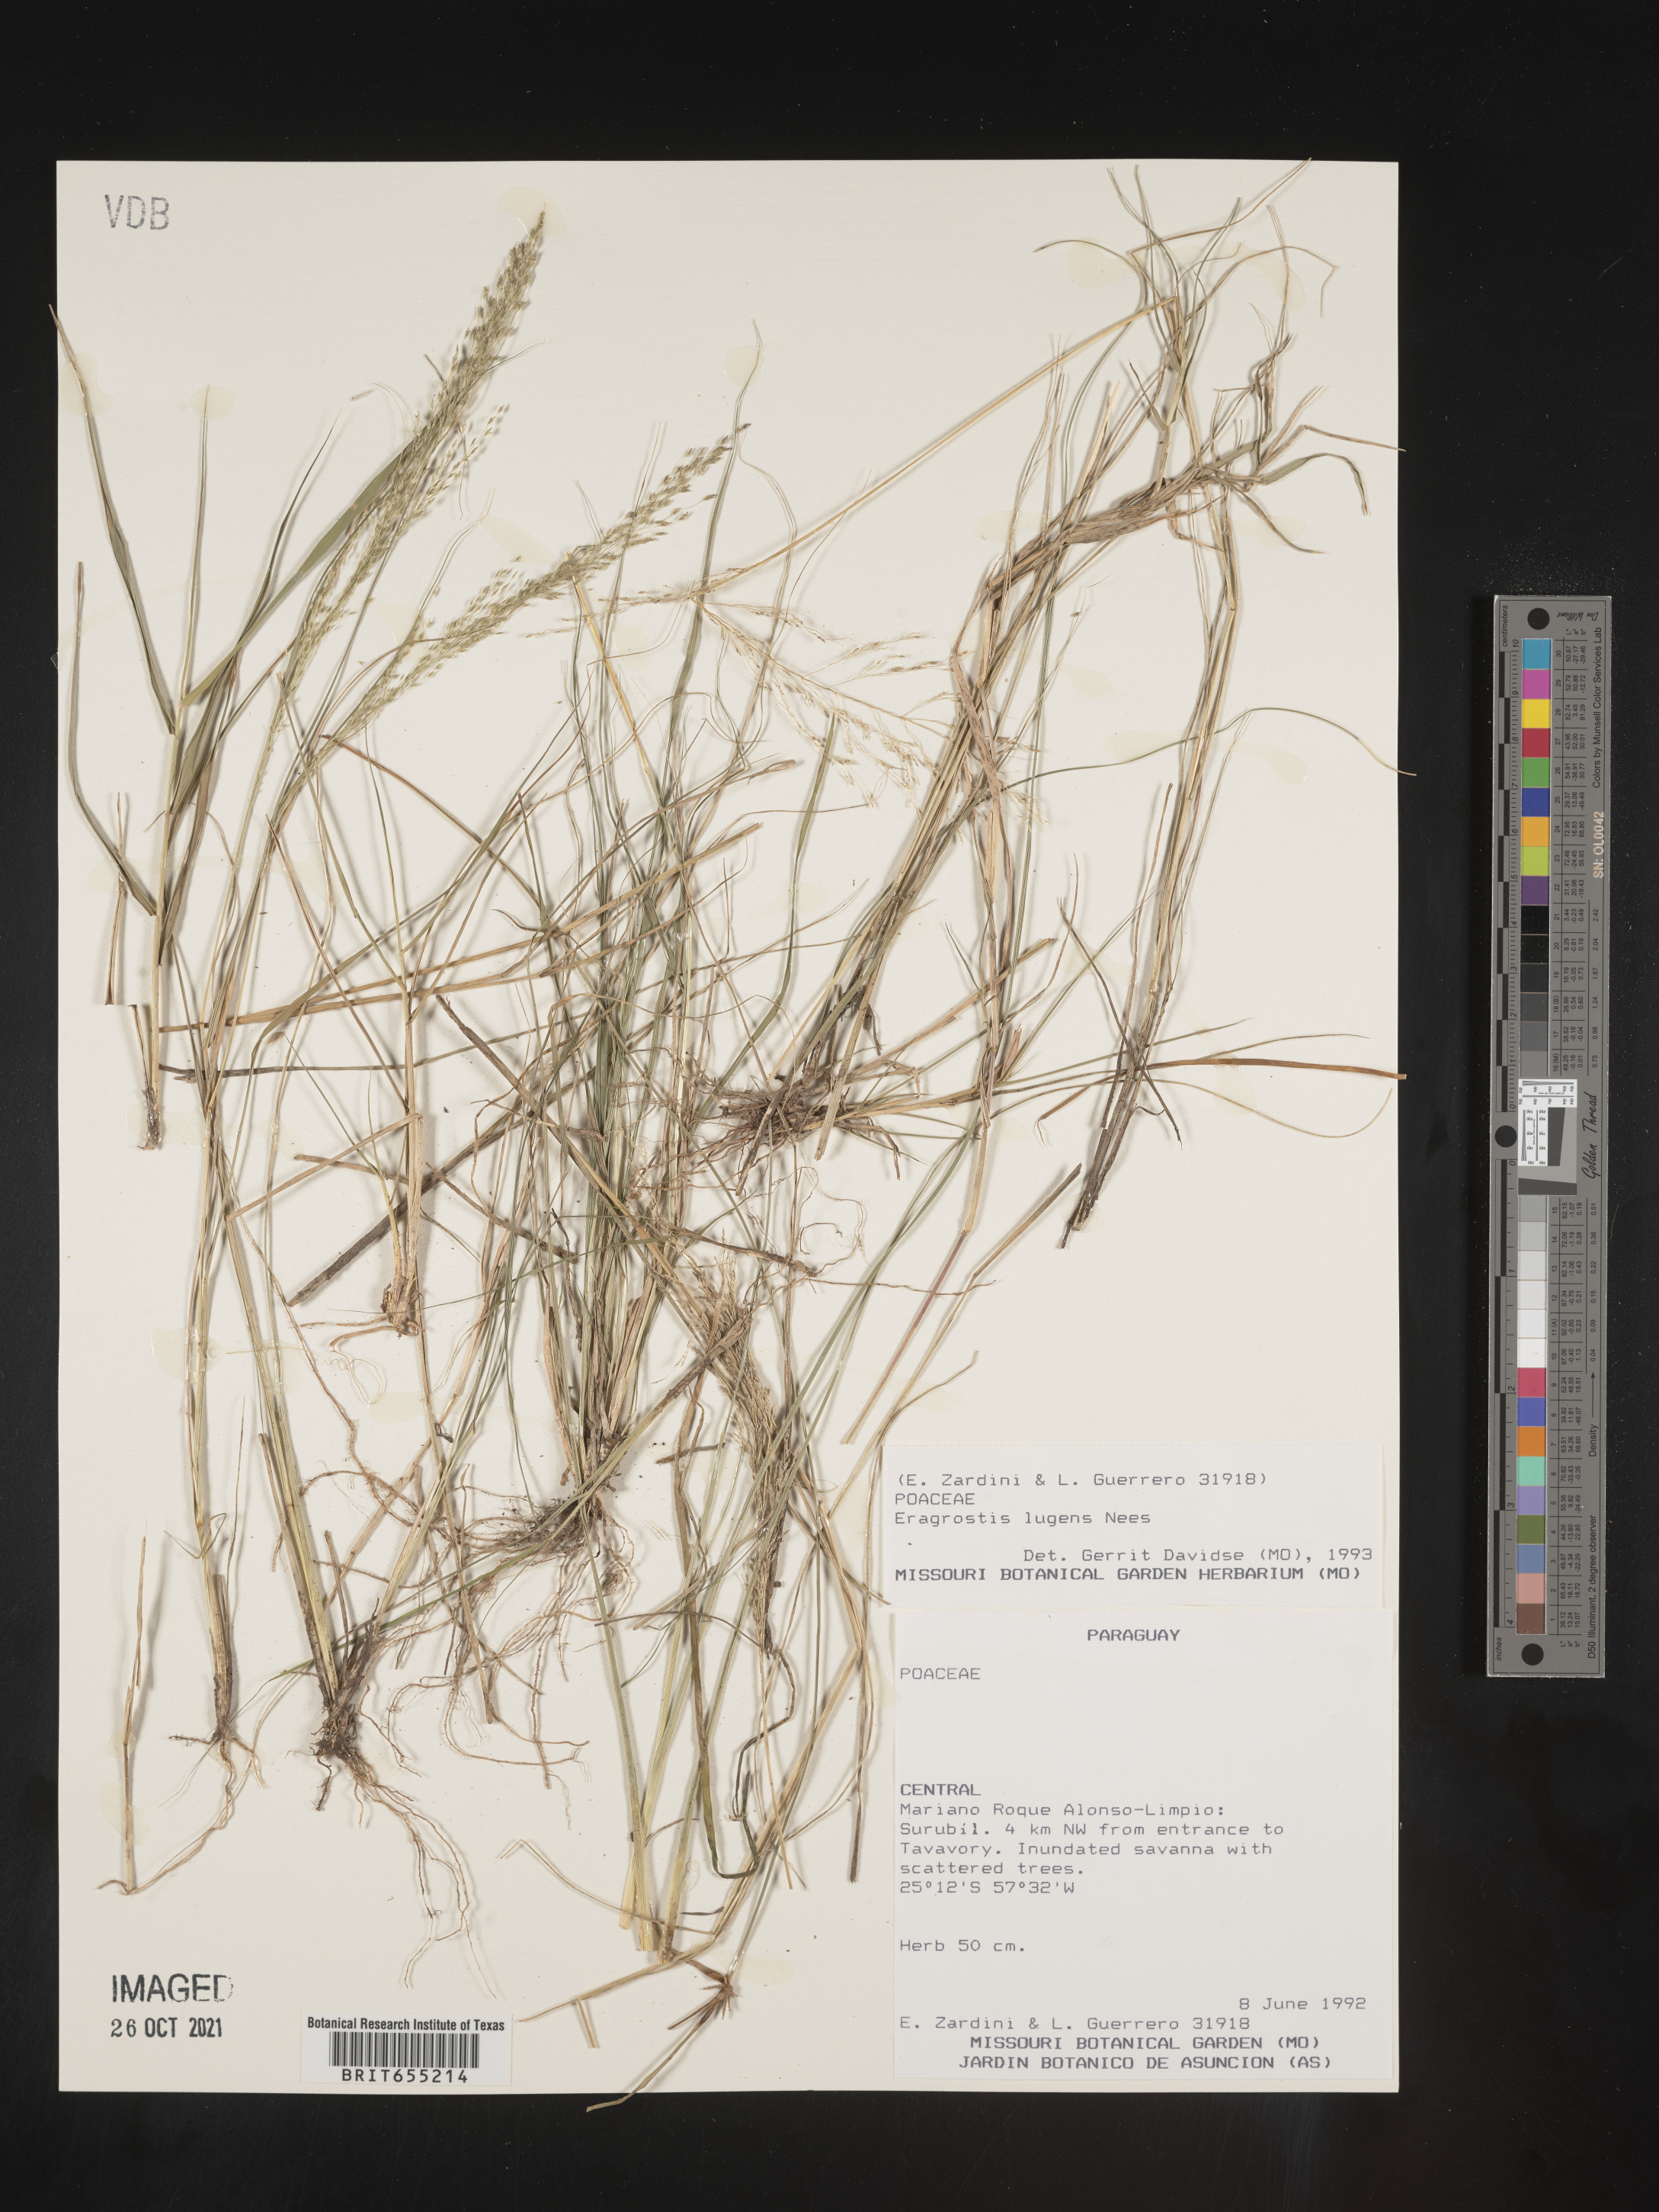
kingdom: Plantae
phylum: Tracheophyta
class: Liliopsida
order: Poales
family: Poaceae
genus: Eragrostis
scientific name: Eragrostis
